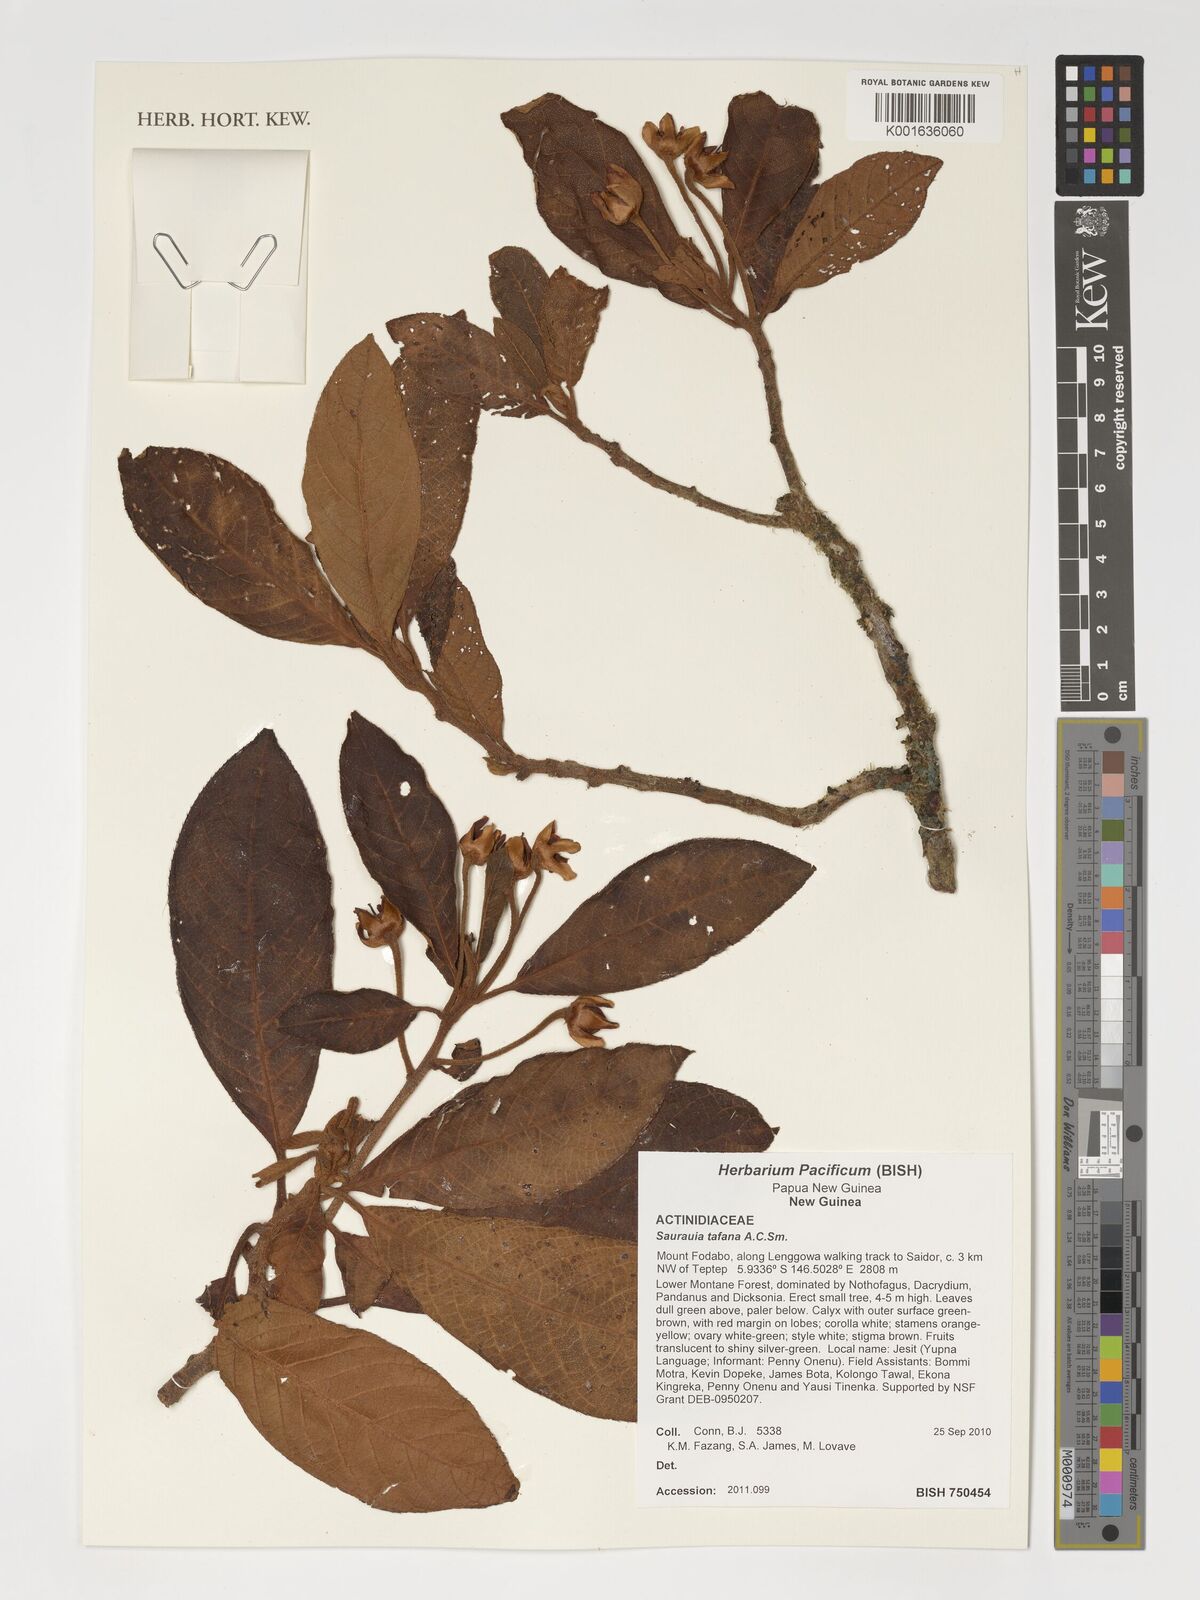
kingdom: Plantae
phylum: Tracheophyta
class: Magnoliopsida
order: Ericales
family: Actinidiaceae
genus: Saurauia
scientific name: Saurauia tafana
